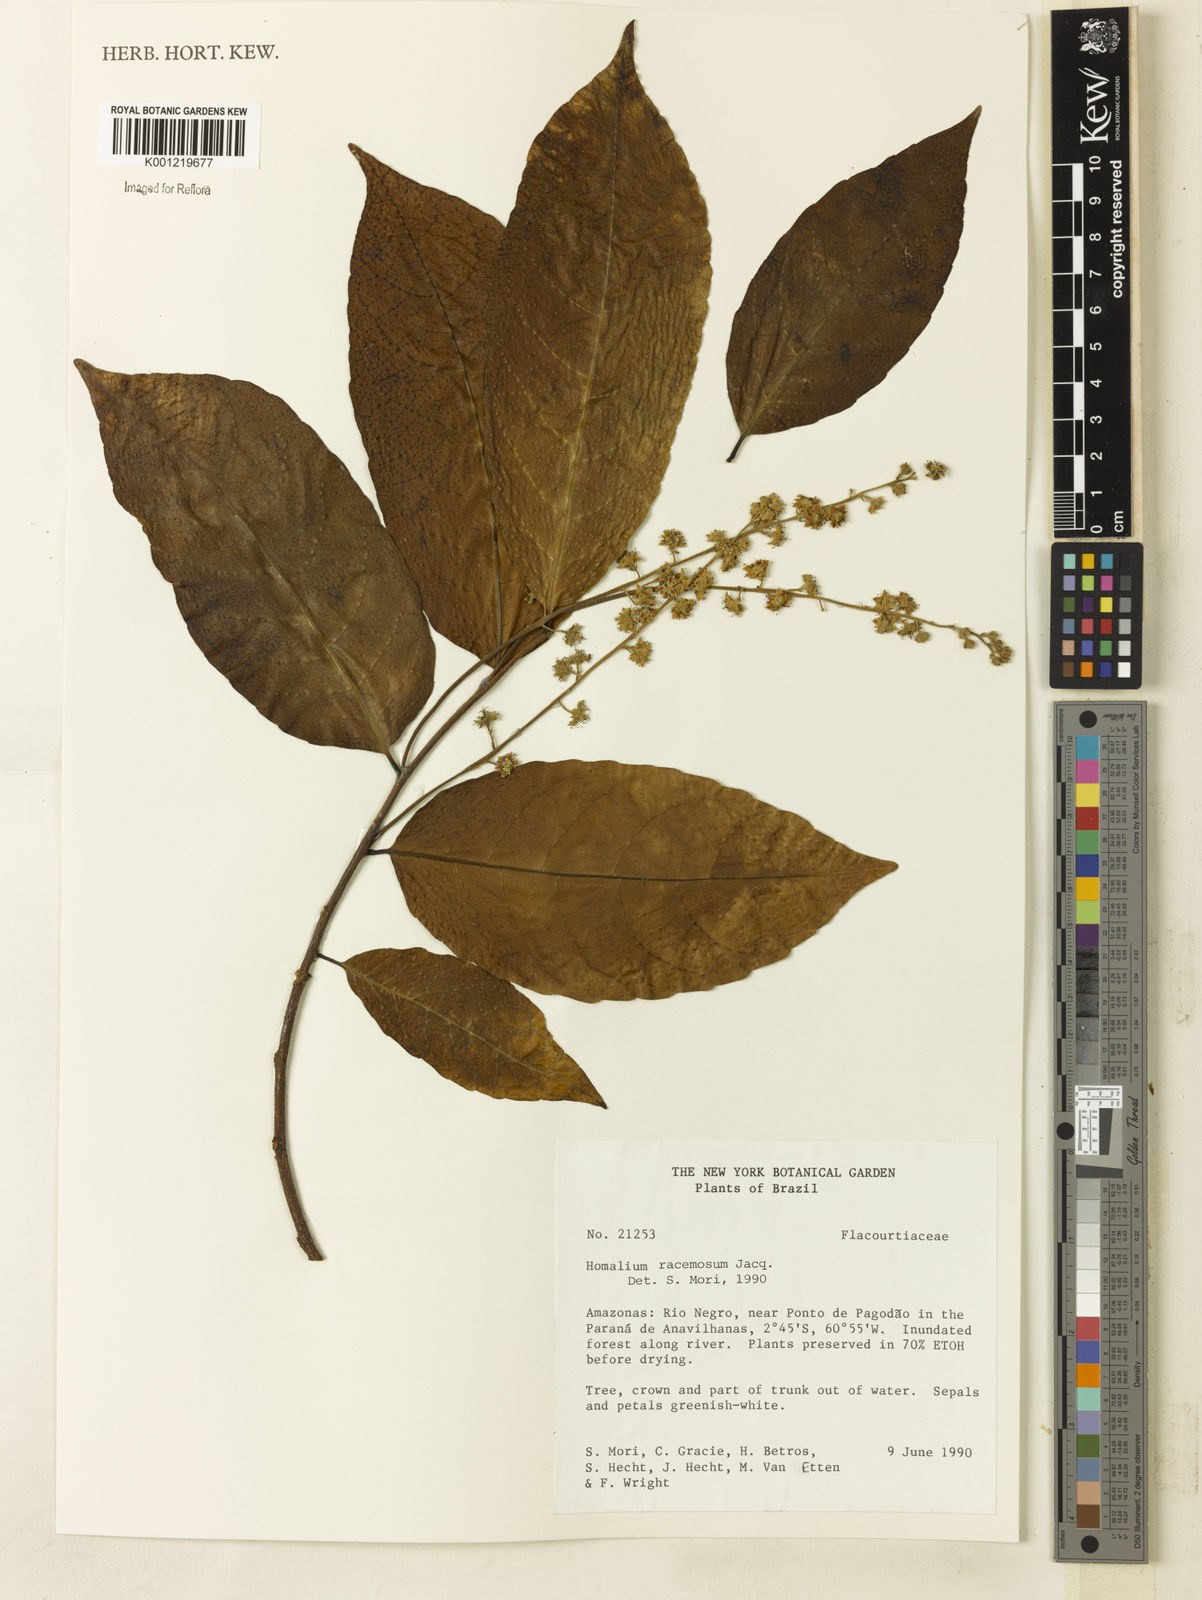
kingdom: Plantae
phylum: Tracheophyta
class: Magnoliopsida
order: Malpighiales
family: Salicaceae
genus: Homalium
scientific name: Homalium racemosum
